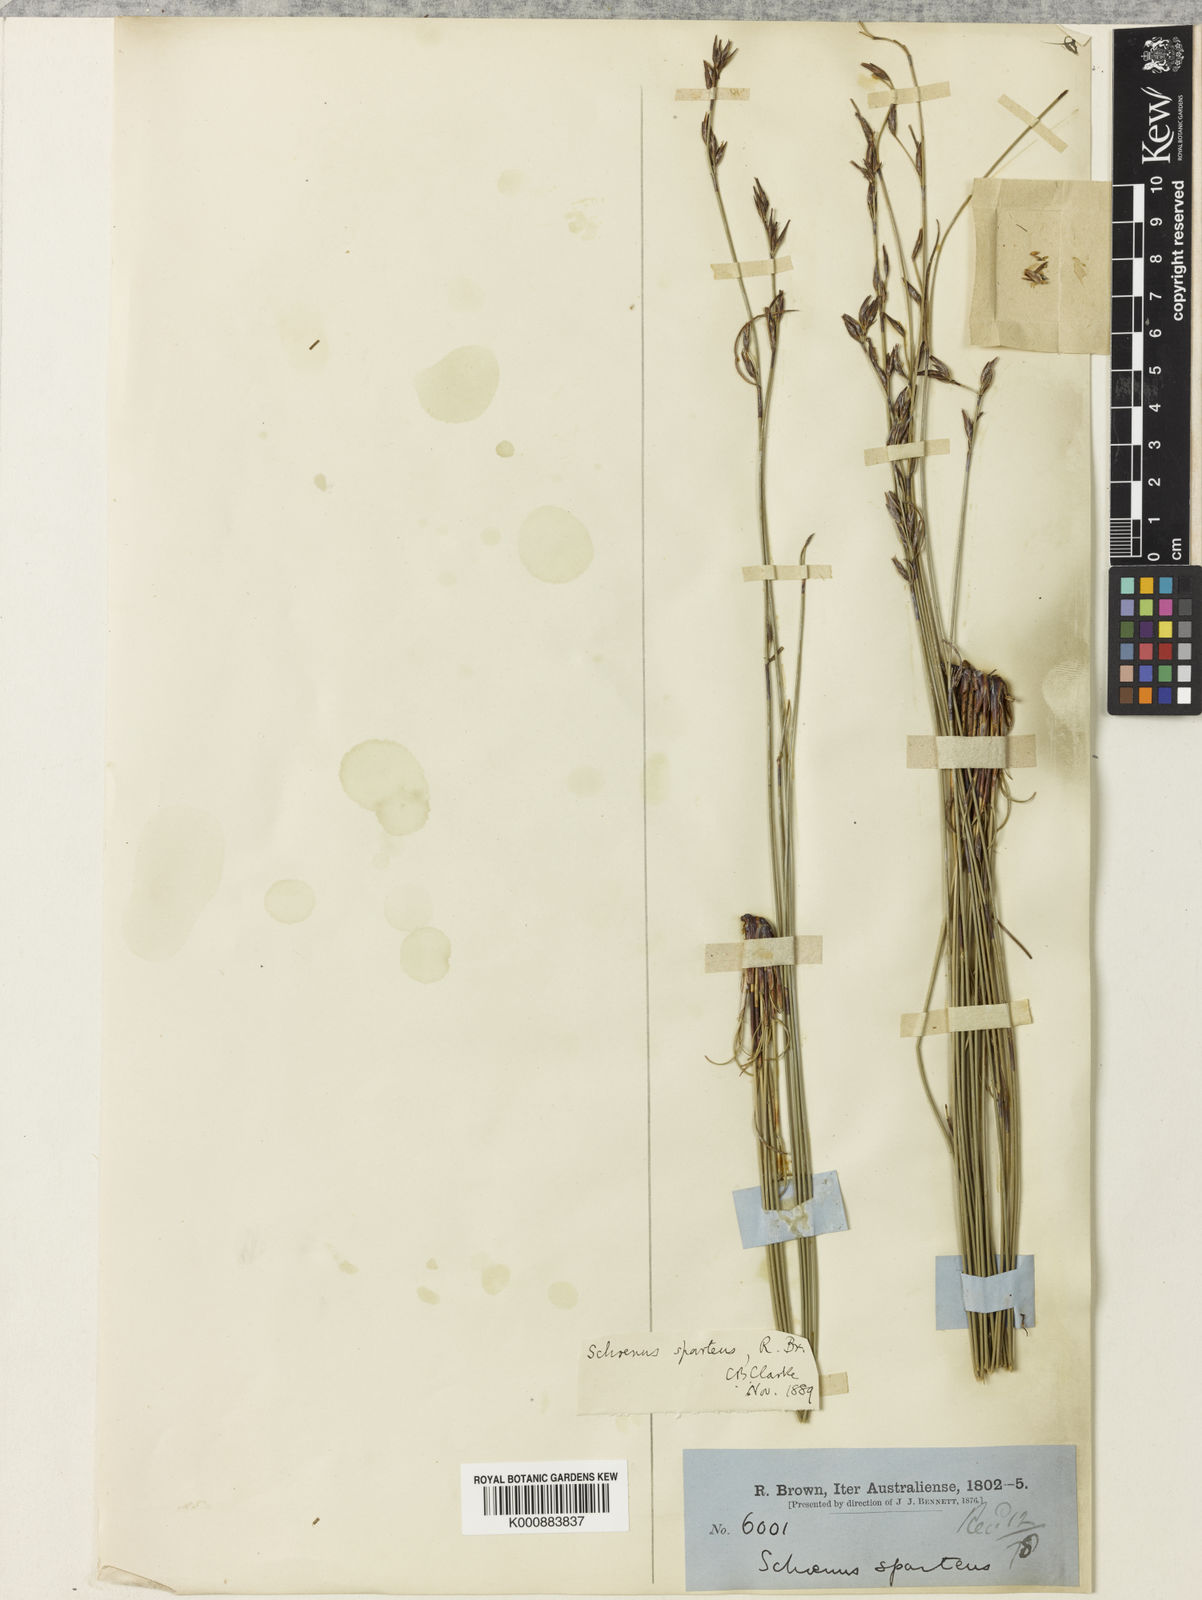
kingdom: Plantae
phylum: Tracheophyta
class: Liliopsida
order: Poales
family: Cyperaceae
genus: Schoenus
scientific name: Schoenus sparteus
